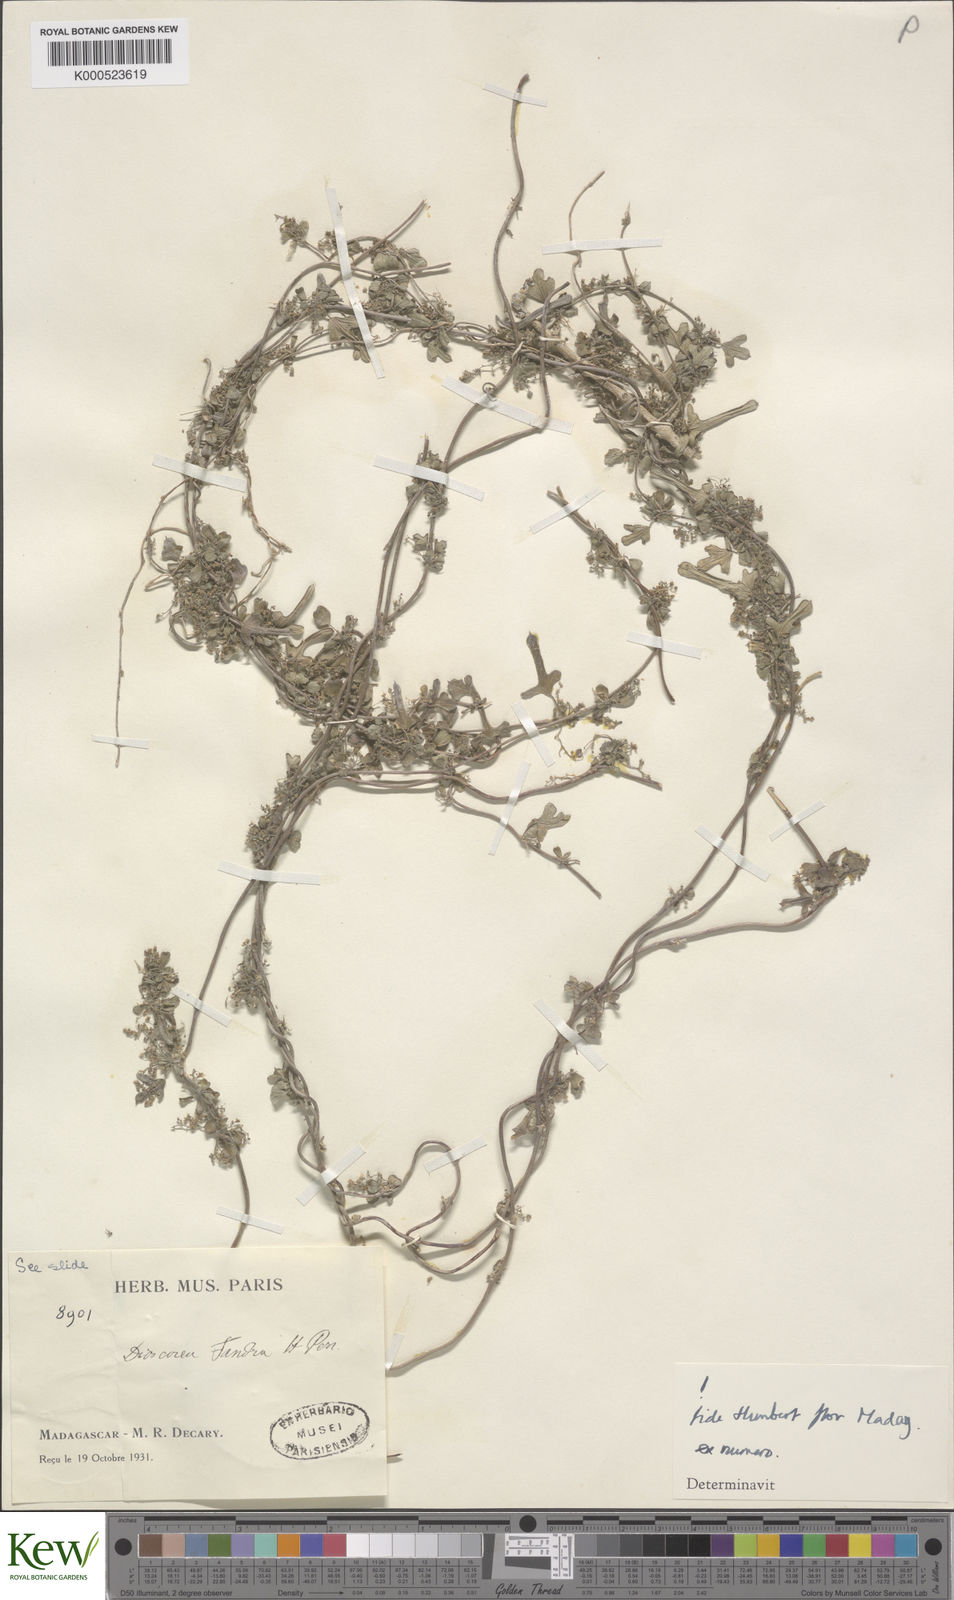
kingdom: Plantae
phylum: Tracheophyta
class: Liliopsida
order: Dioscoreales
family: Dioscoreaceae
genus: Dioscorea
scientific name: Dioscorea fandra
